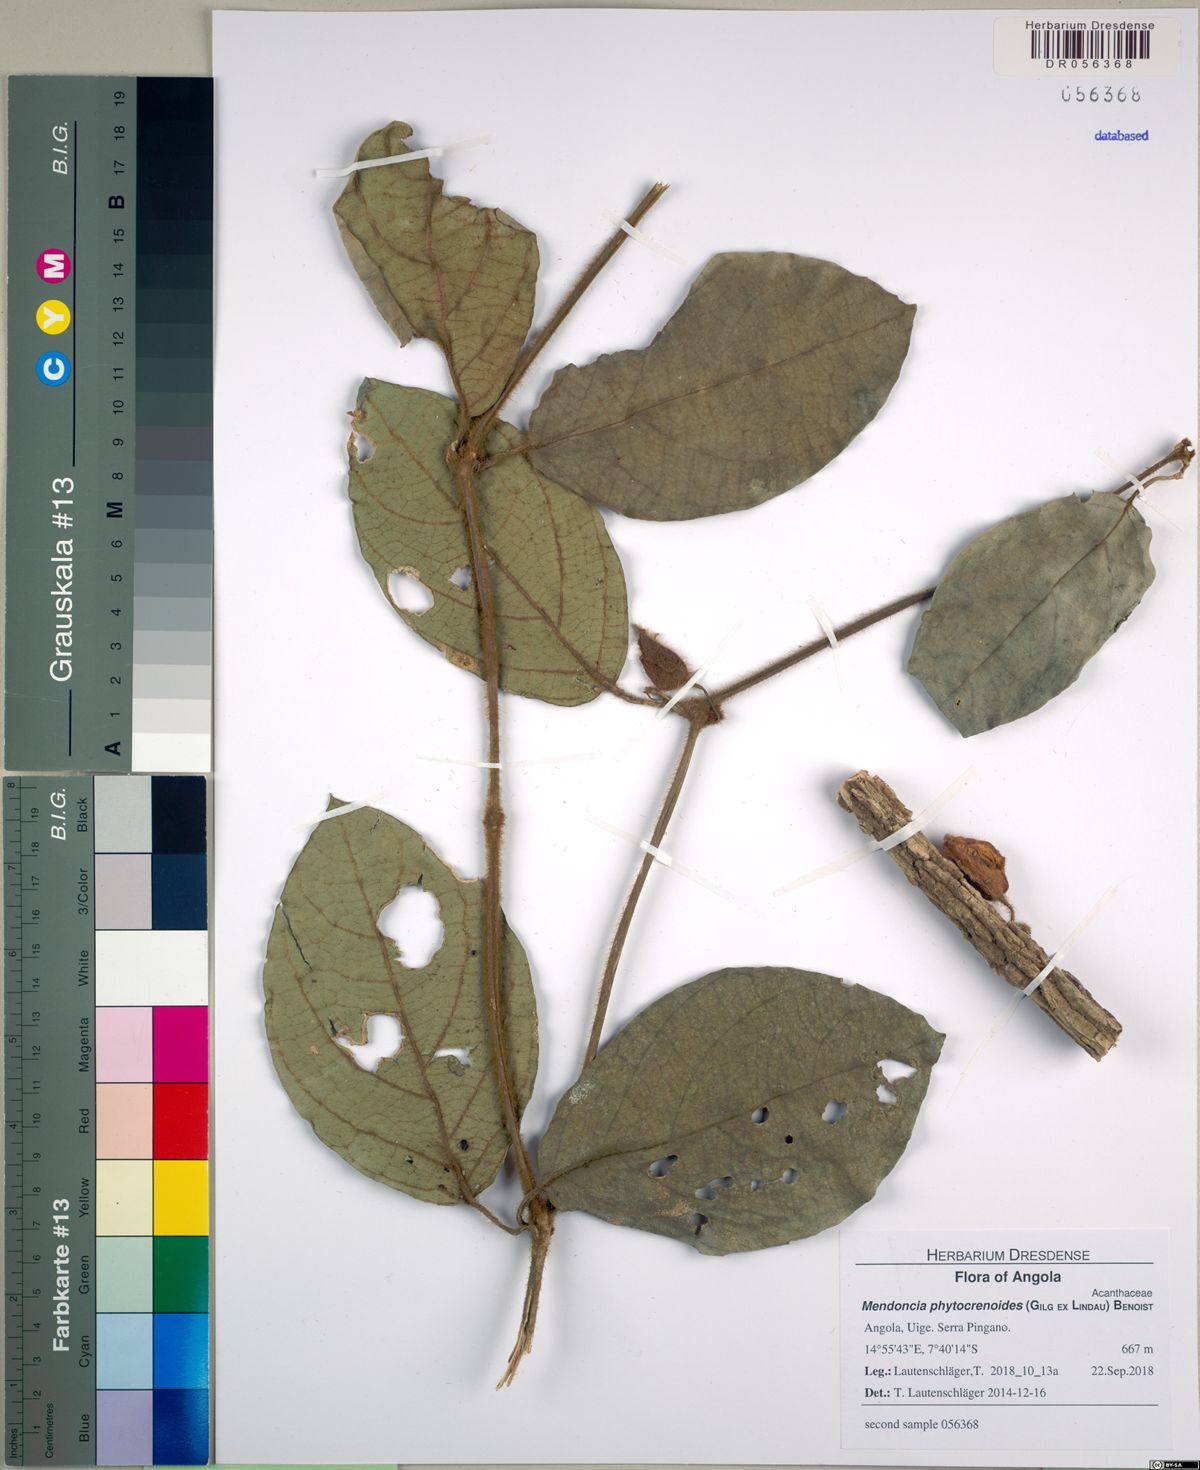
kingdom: Plantae
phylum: Tracheophyta
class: Magnoliopsida
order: Lamiales
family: Acanthaceae
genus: Mendoncia
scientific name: Mendoncia phytocrenoides
